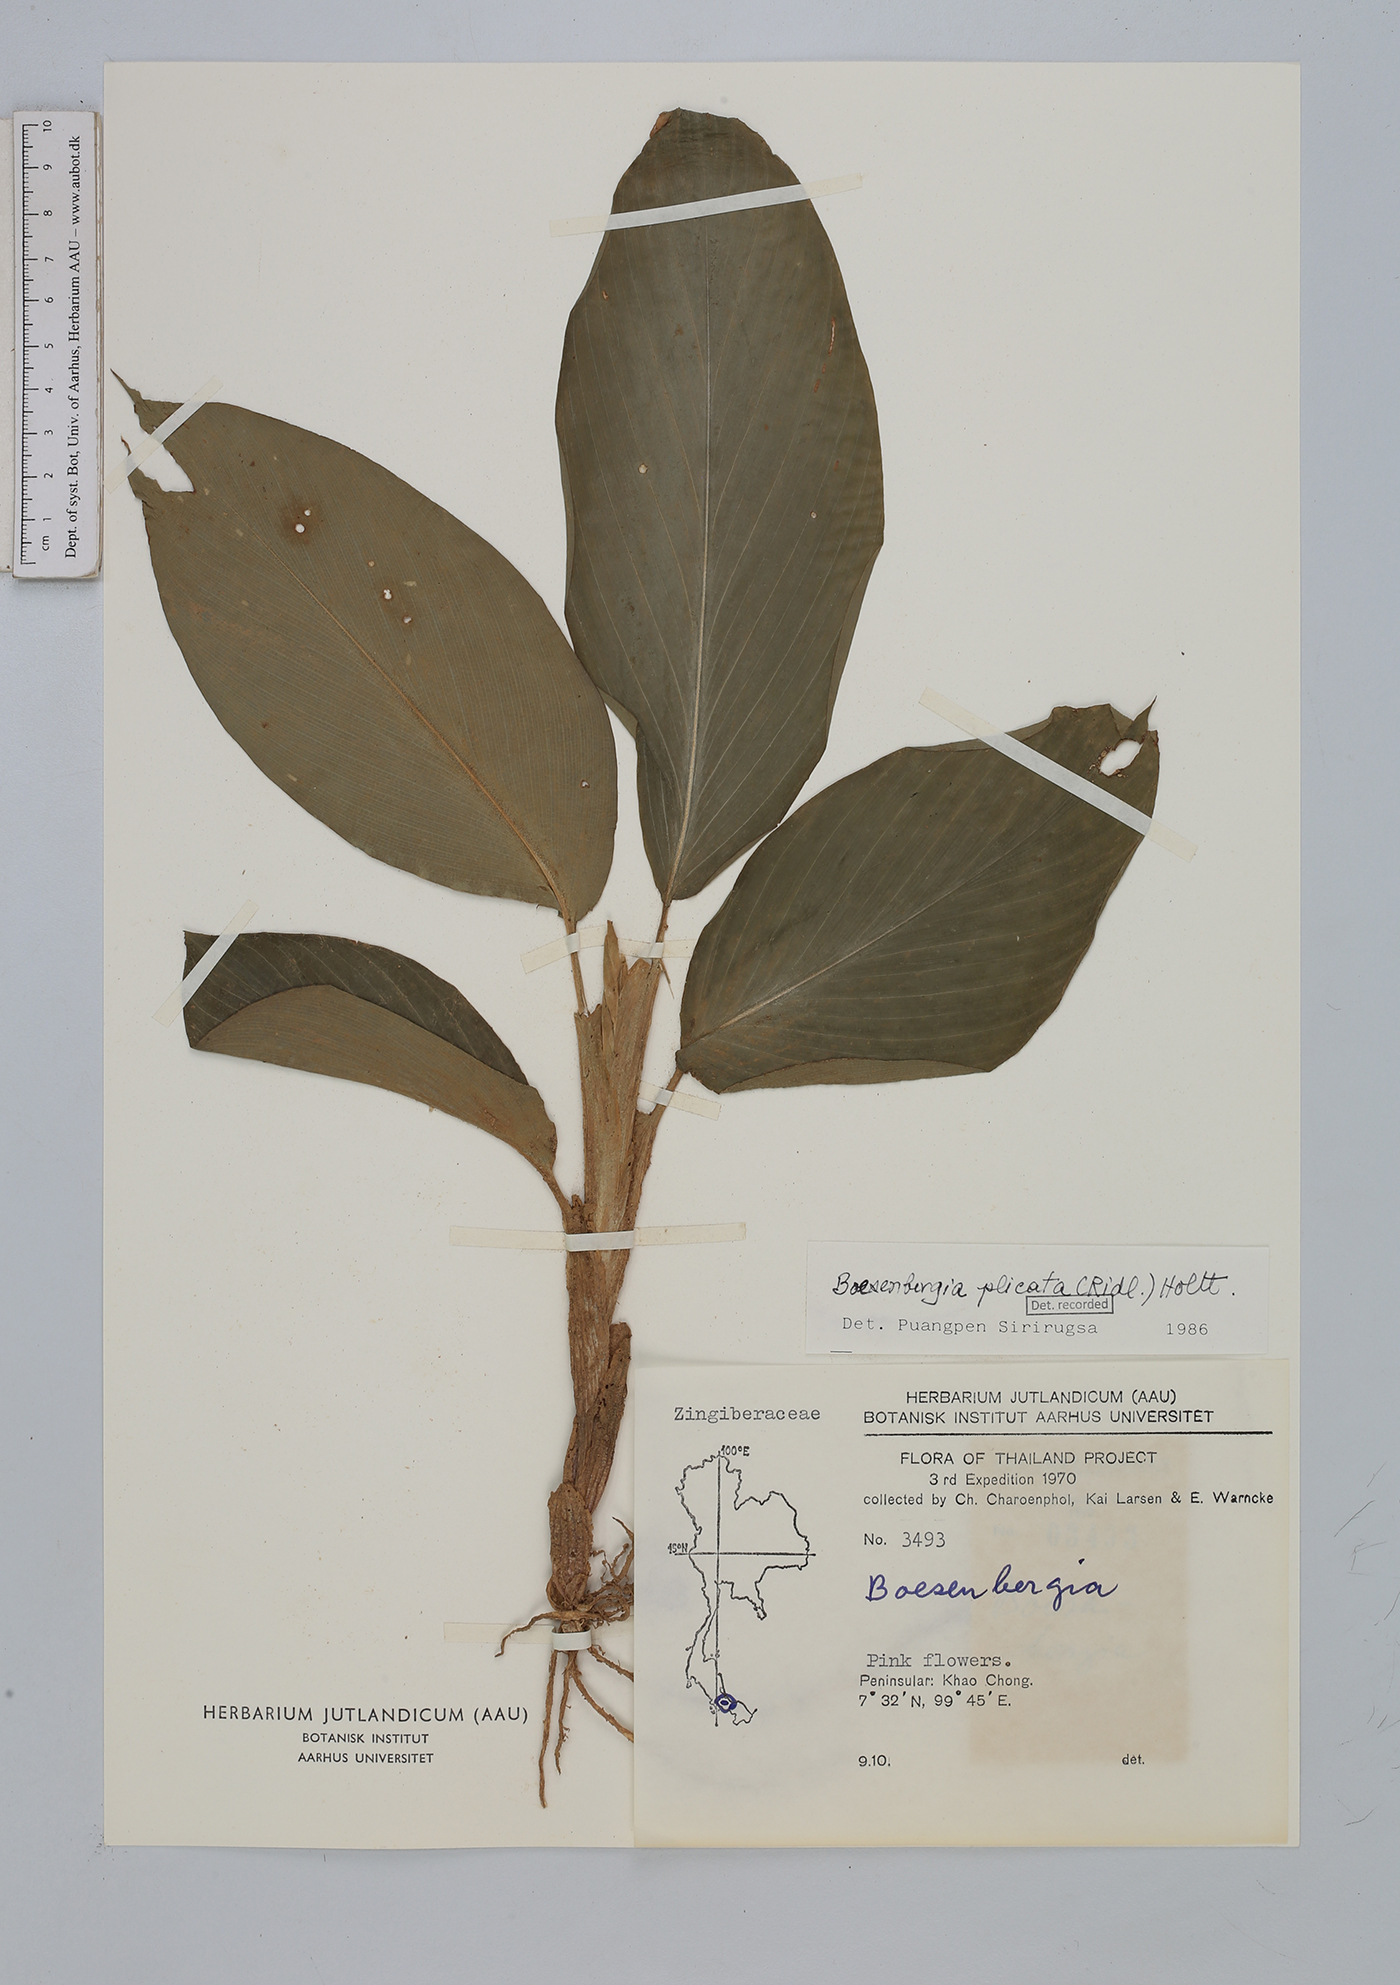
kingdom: Plantae
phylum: Tracheophyta
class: Liliopsida
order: Zingiberales
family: Zingiberaceae
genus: Boesenbergia
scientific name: Boesenbergia plicata
